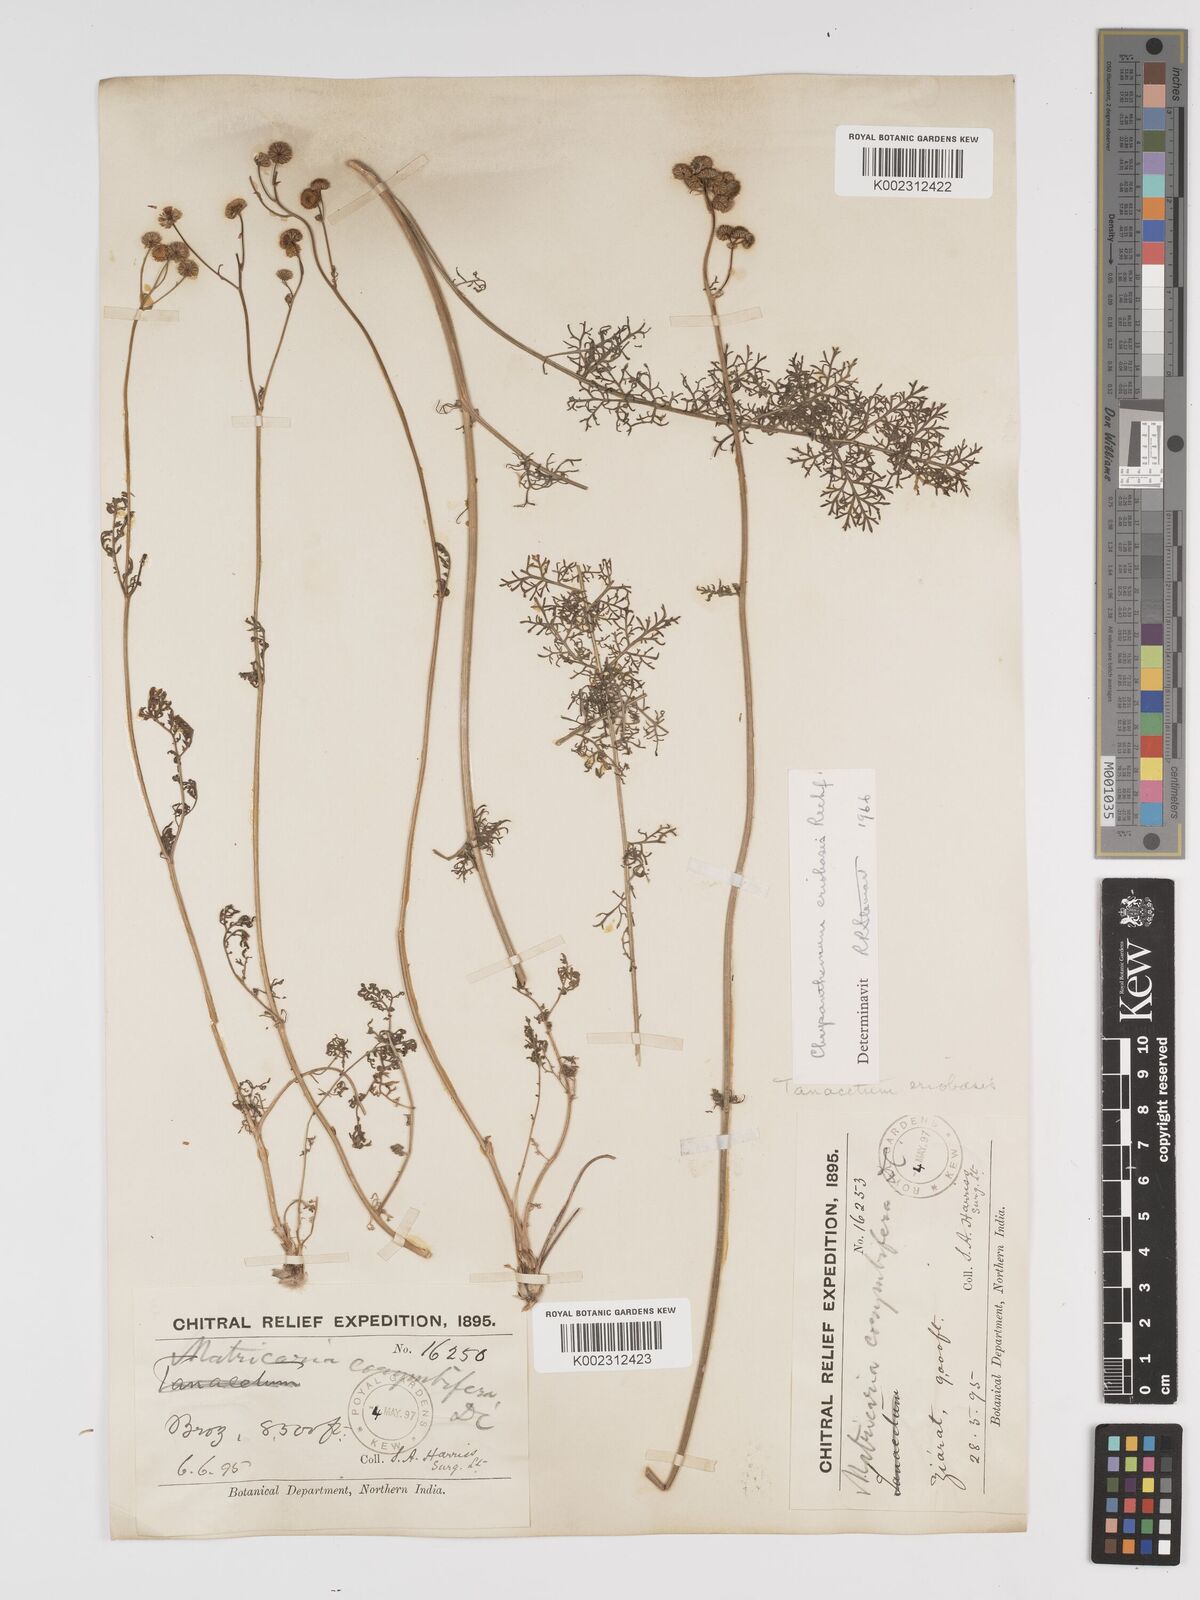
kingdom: Plantae
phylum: Tracheophyta
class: Magnoliopsida
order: Asterales
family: Asteraceae
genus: Tanacetum
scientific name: Tanacetum
